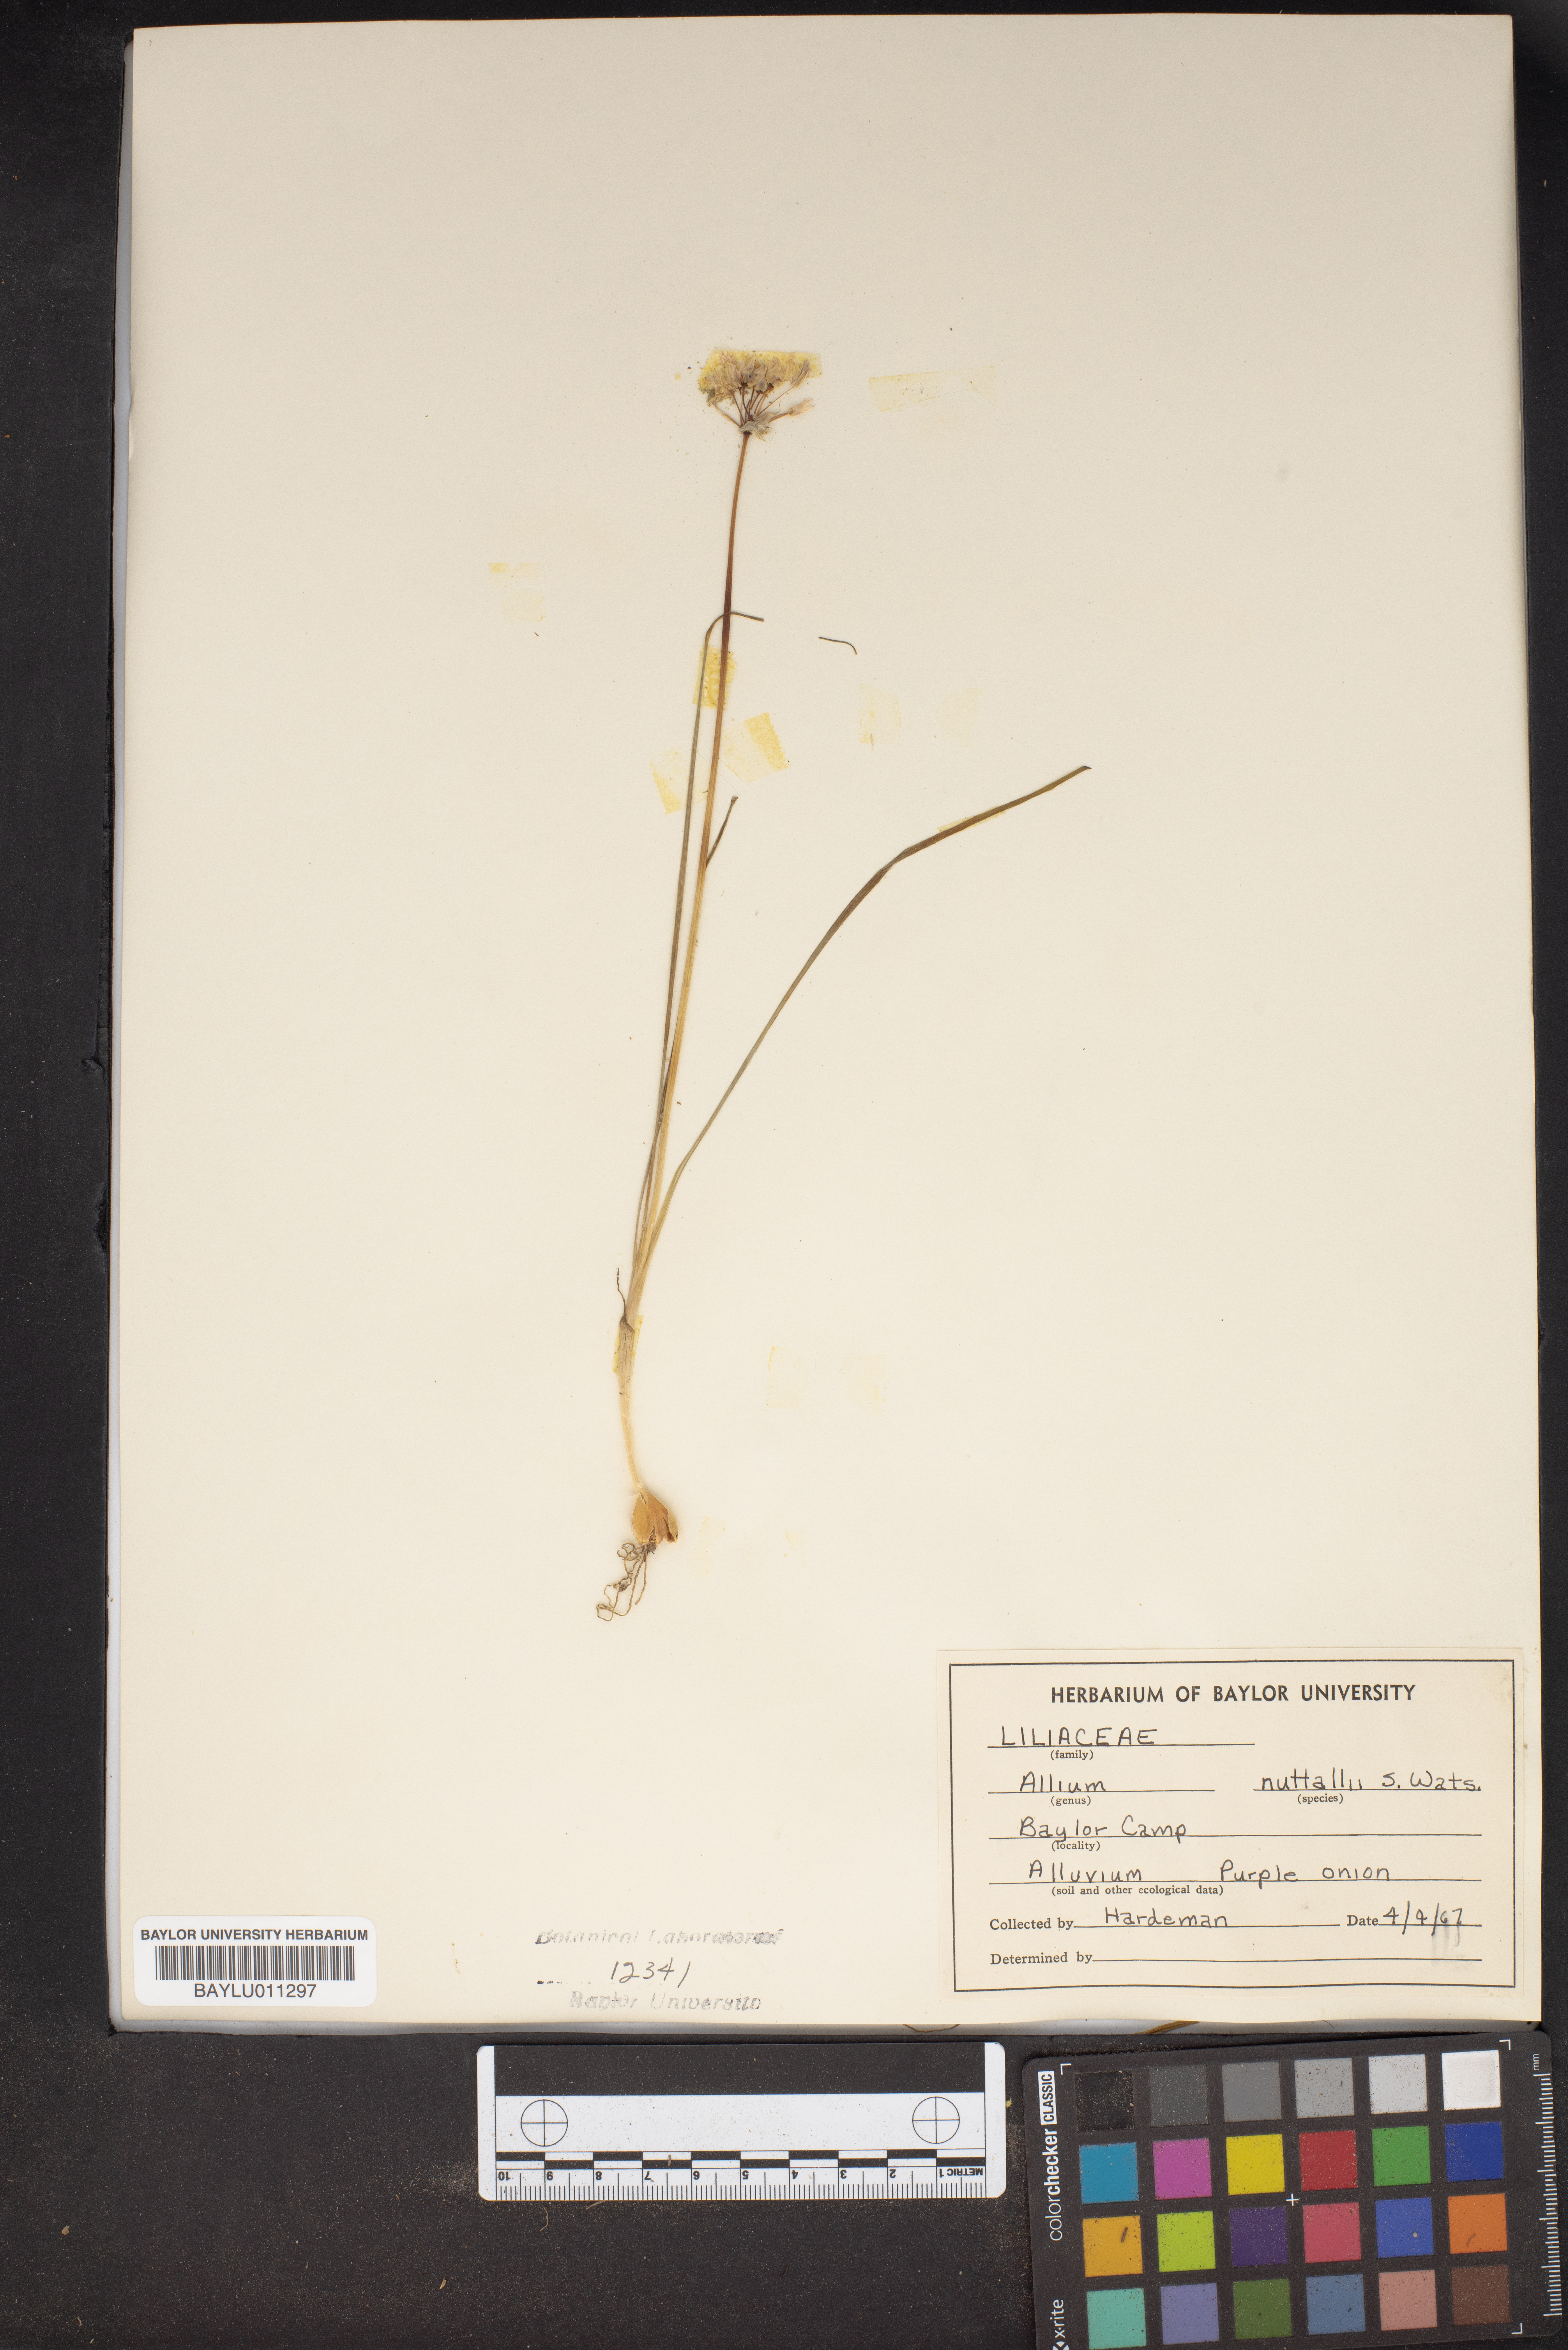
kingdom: Plantae
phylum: Tracheophyta
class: Liliopsida
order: Asparagales
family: Amaryllidaceae
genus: Allium
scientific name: Allium drummondii
